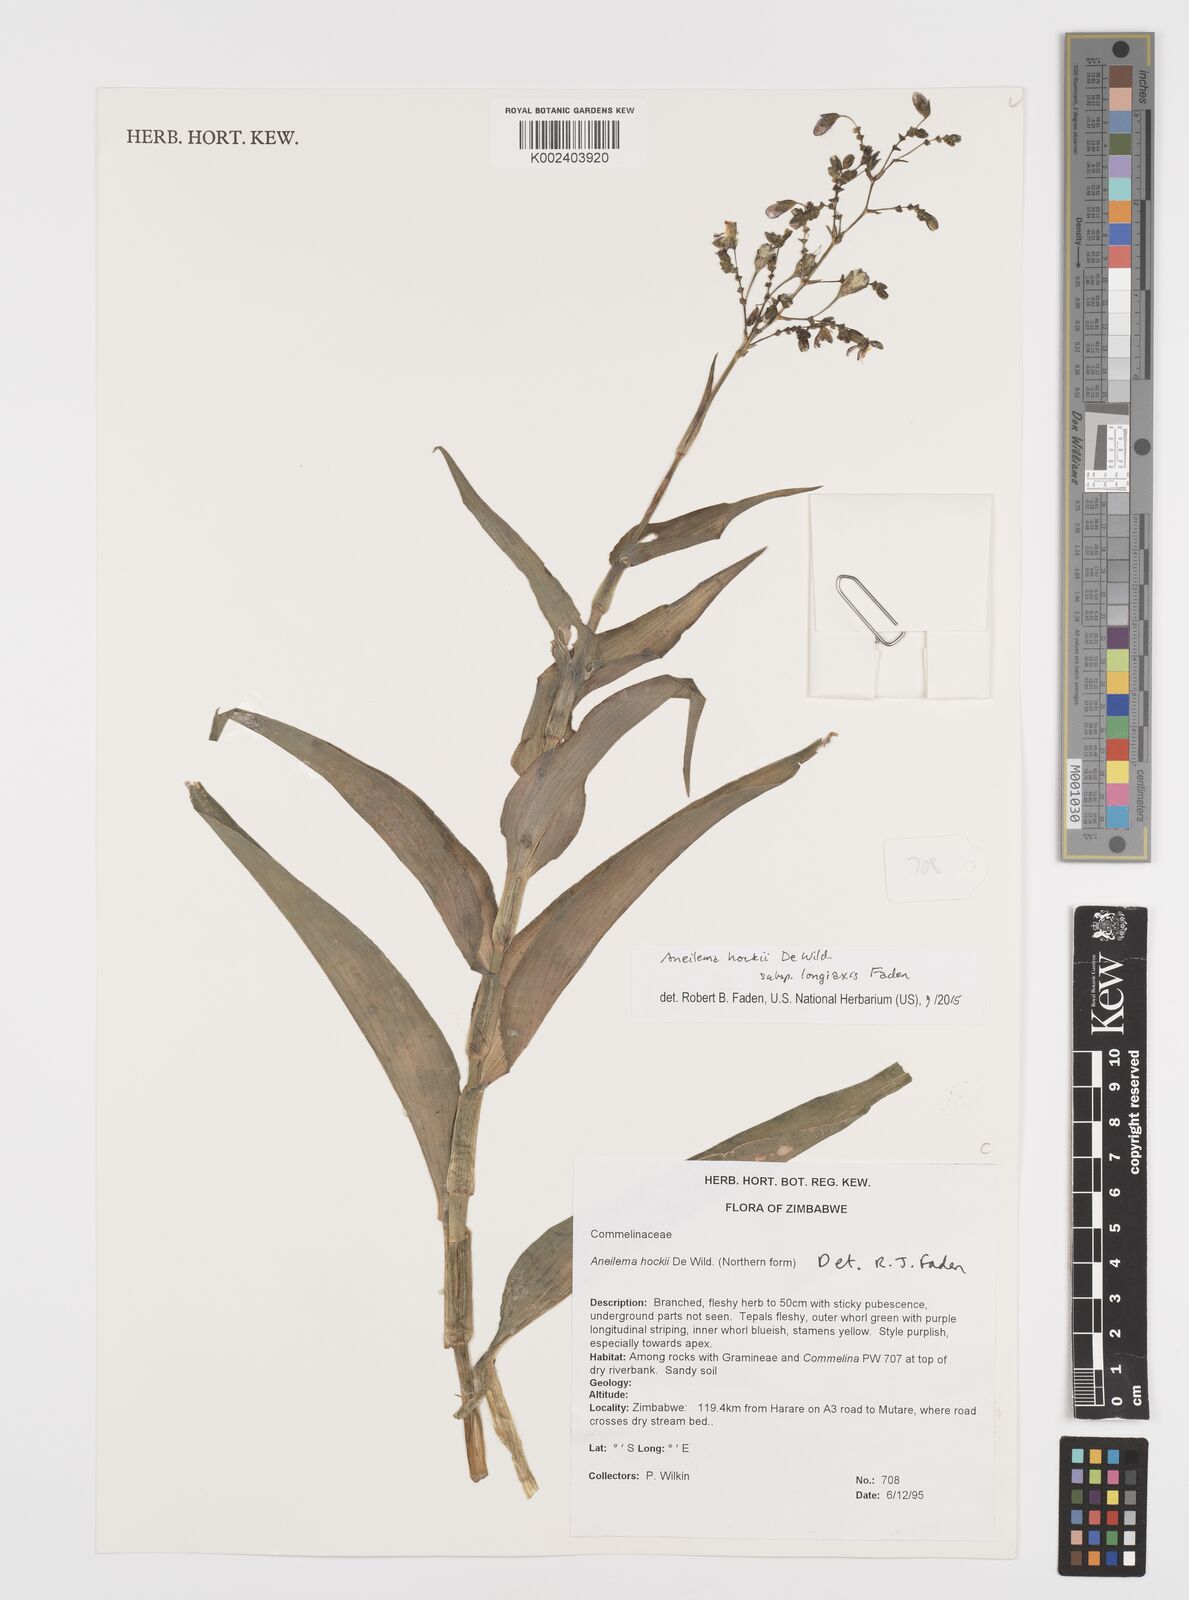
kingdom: Plantae
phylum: Tracheophyta
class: Liliopsida
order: Commelinales
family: Commelinaceae
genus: Aneilema
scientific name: Aneilema hockii
